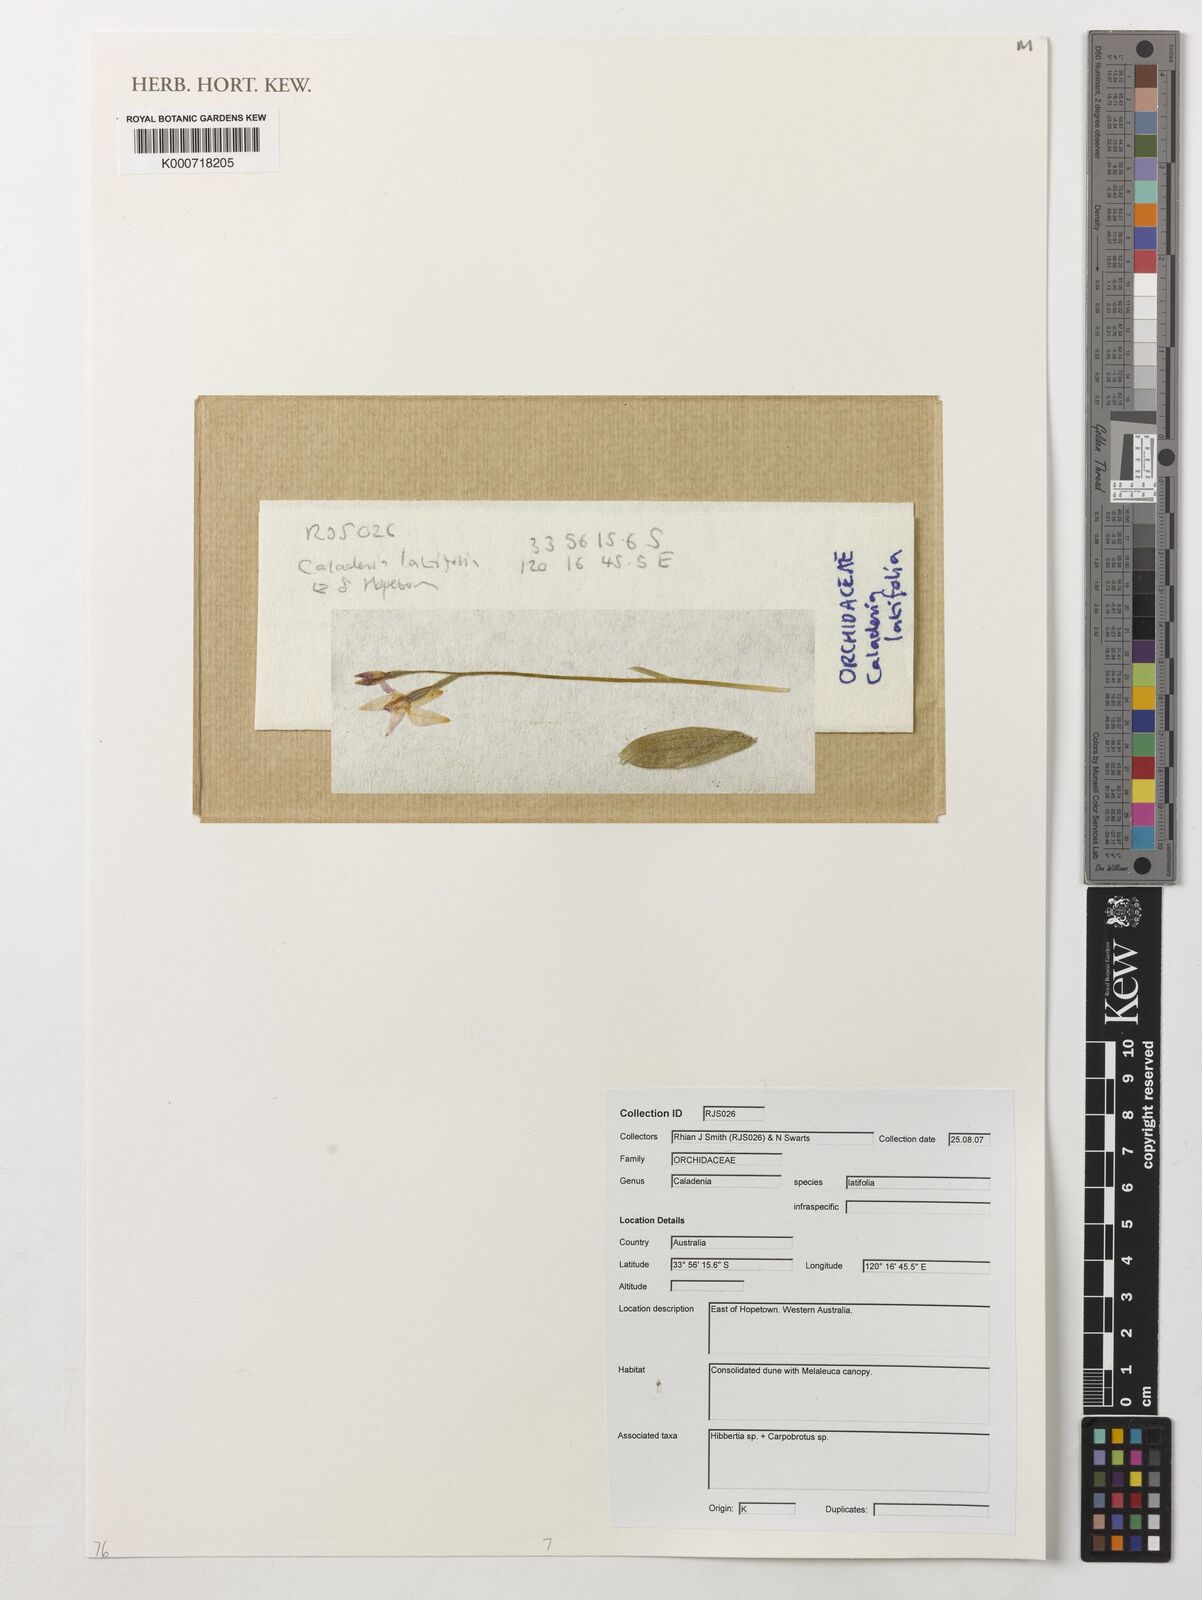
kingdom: Plantae
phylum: Tracheophyta
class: Liliopsida
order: Asparagales
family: Orchidaceae
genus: Caladenia
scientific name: Caladenia latifolia
